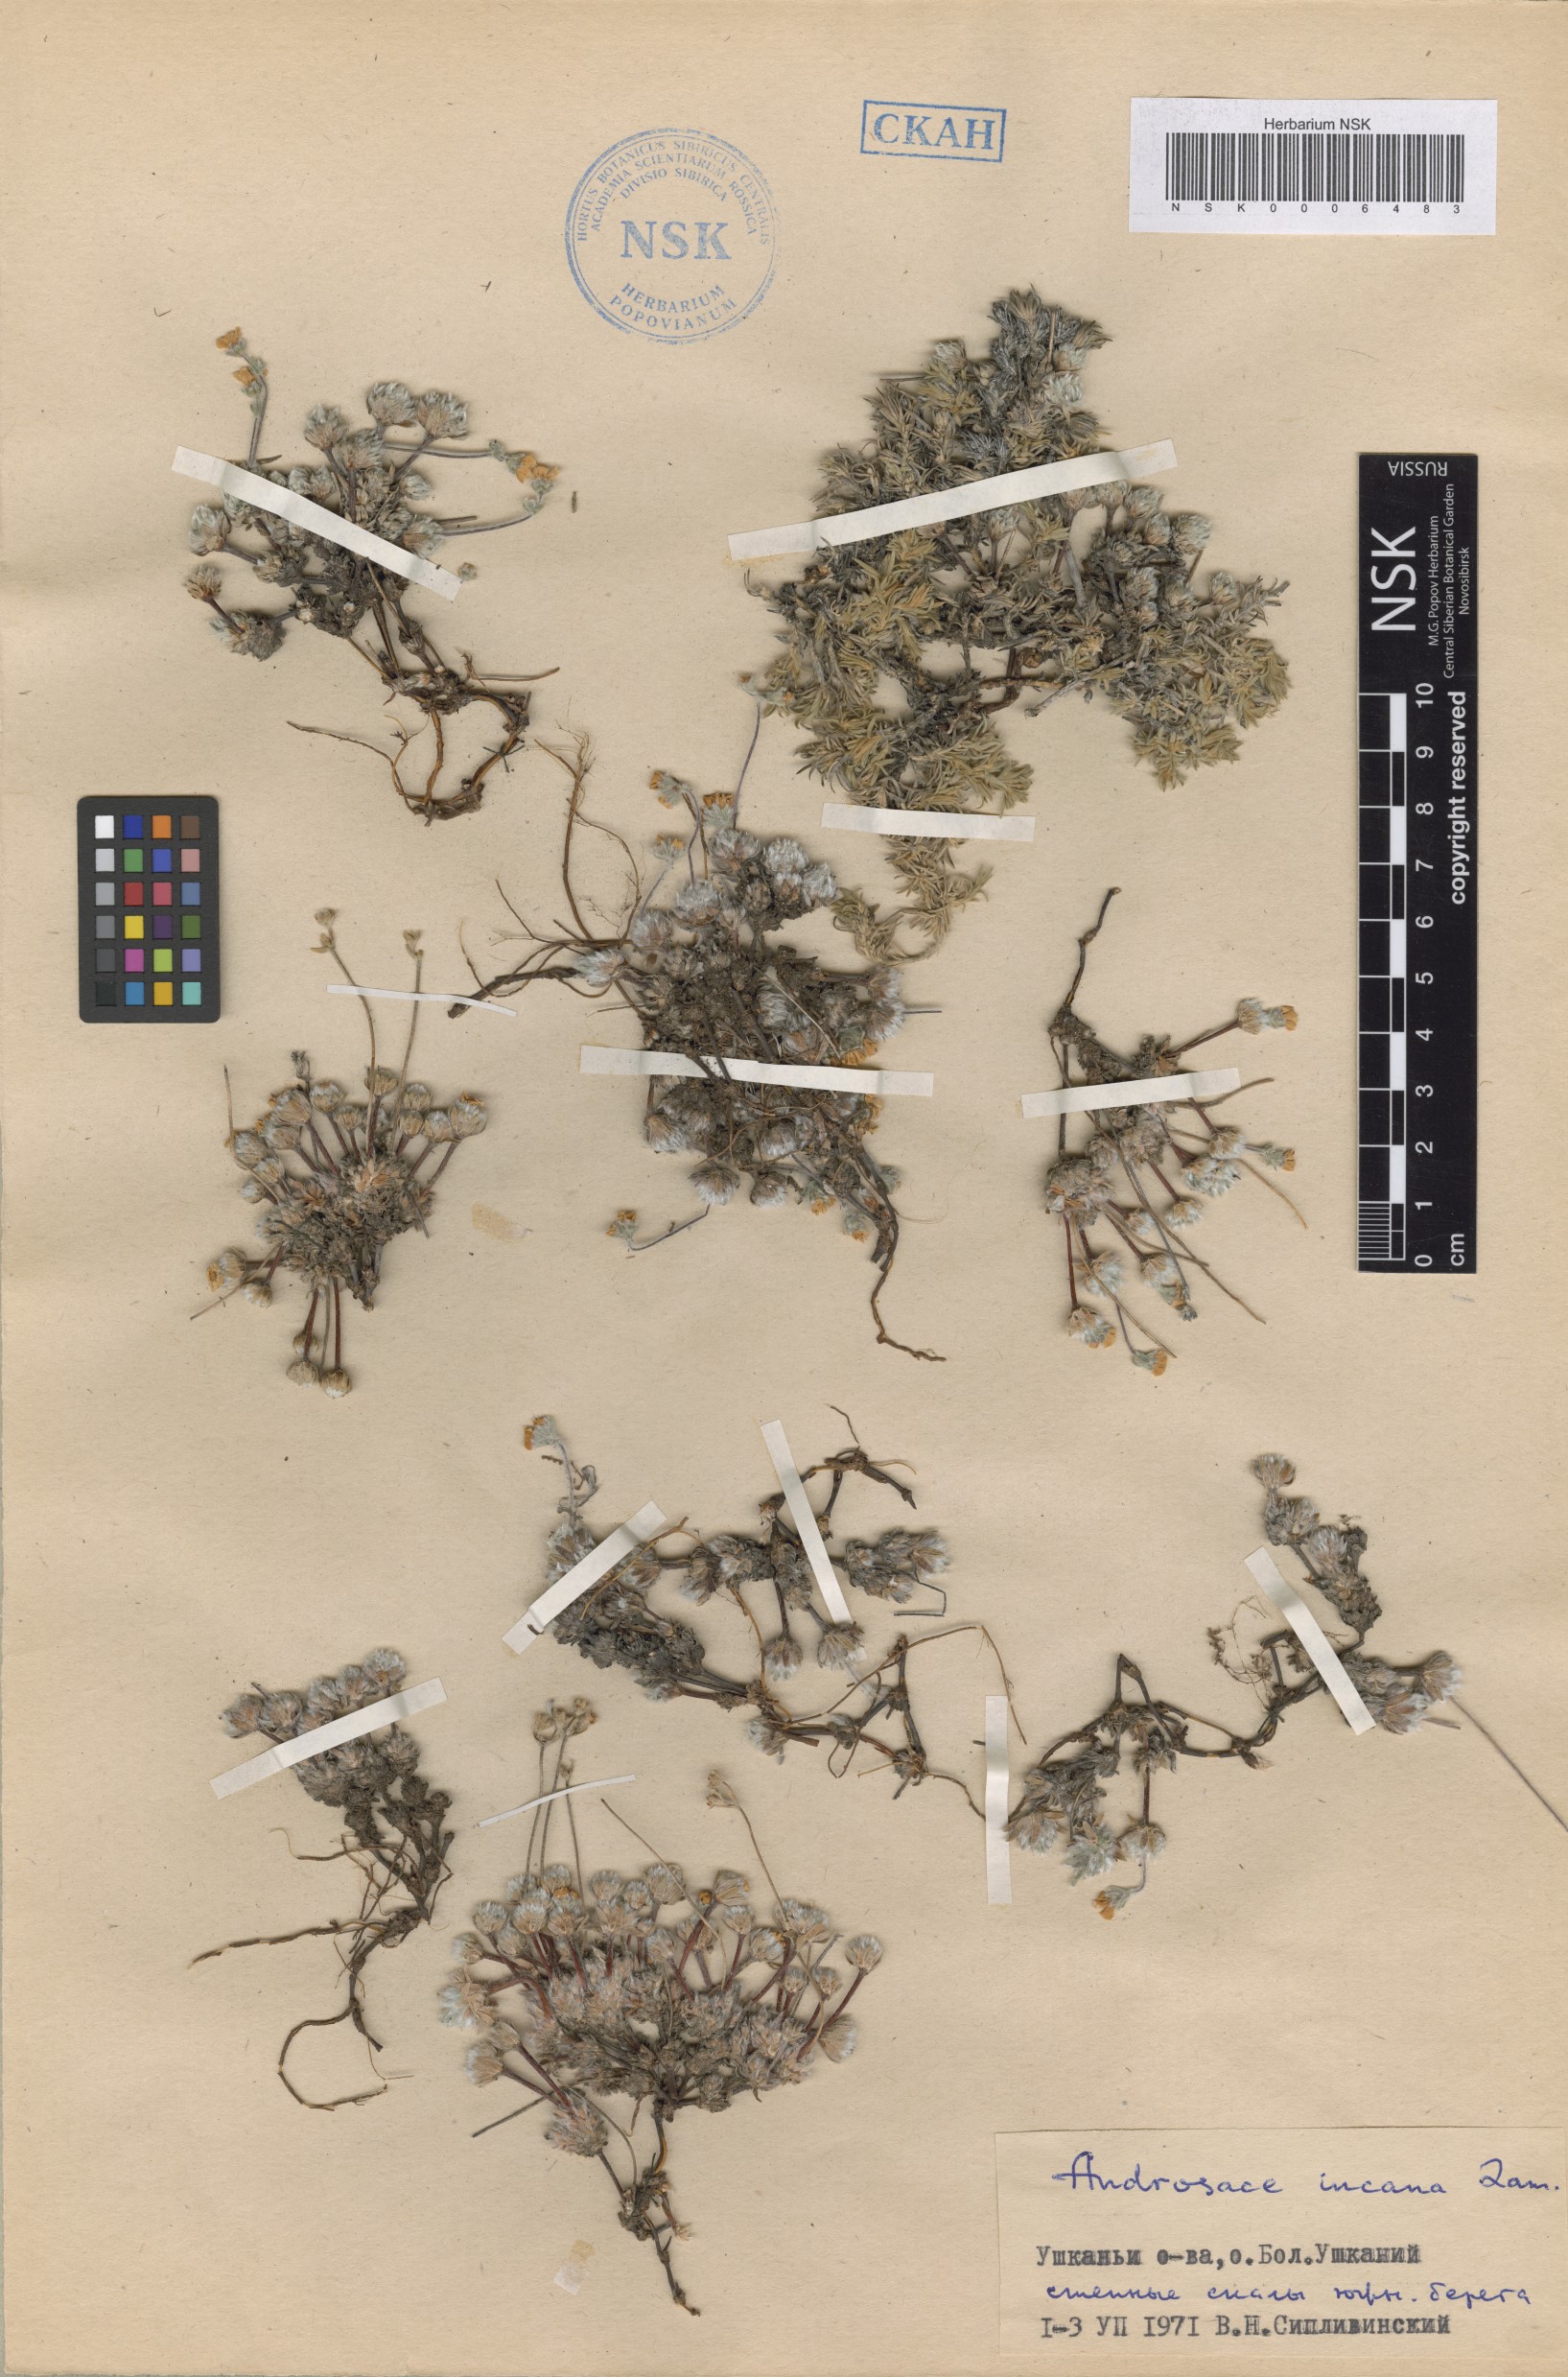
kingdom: Plantae
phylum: Tracheophyta
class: Magnoliopsida
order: Ericales
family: Primulaceae
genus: Androsace
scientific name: Androsace incana
